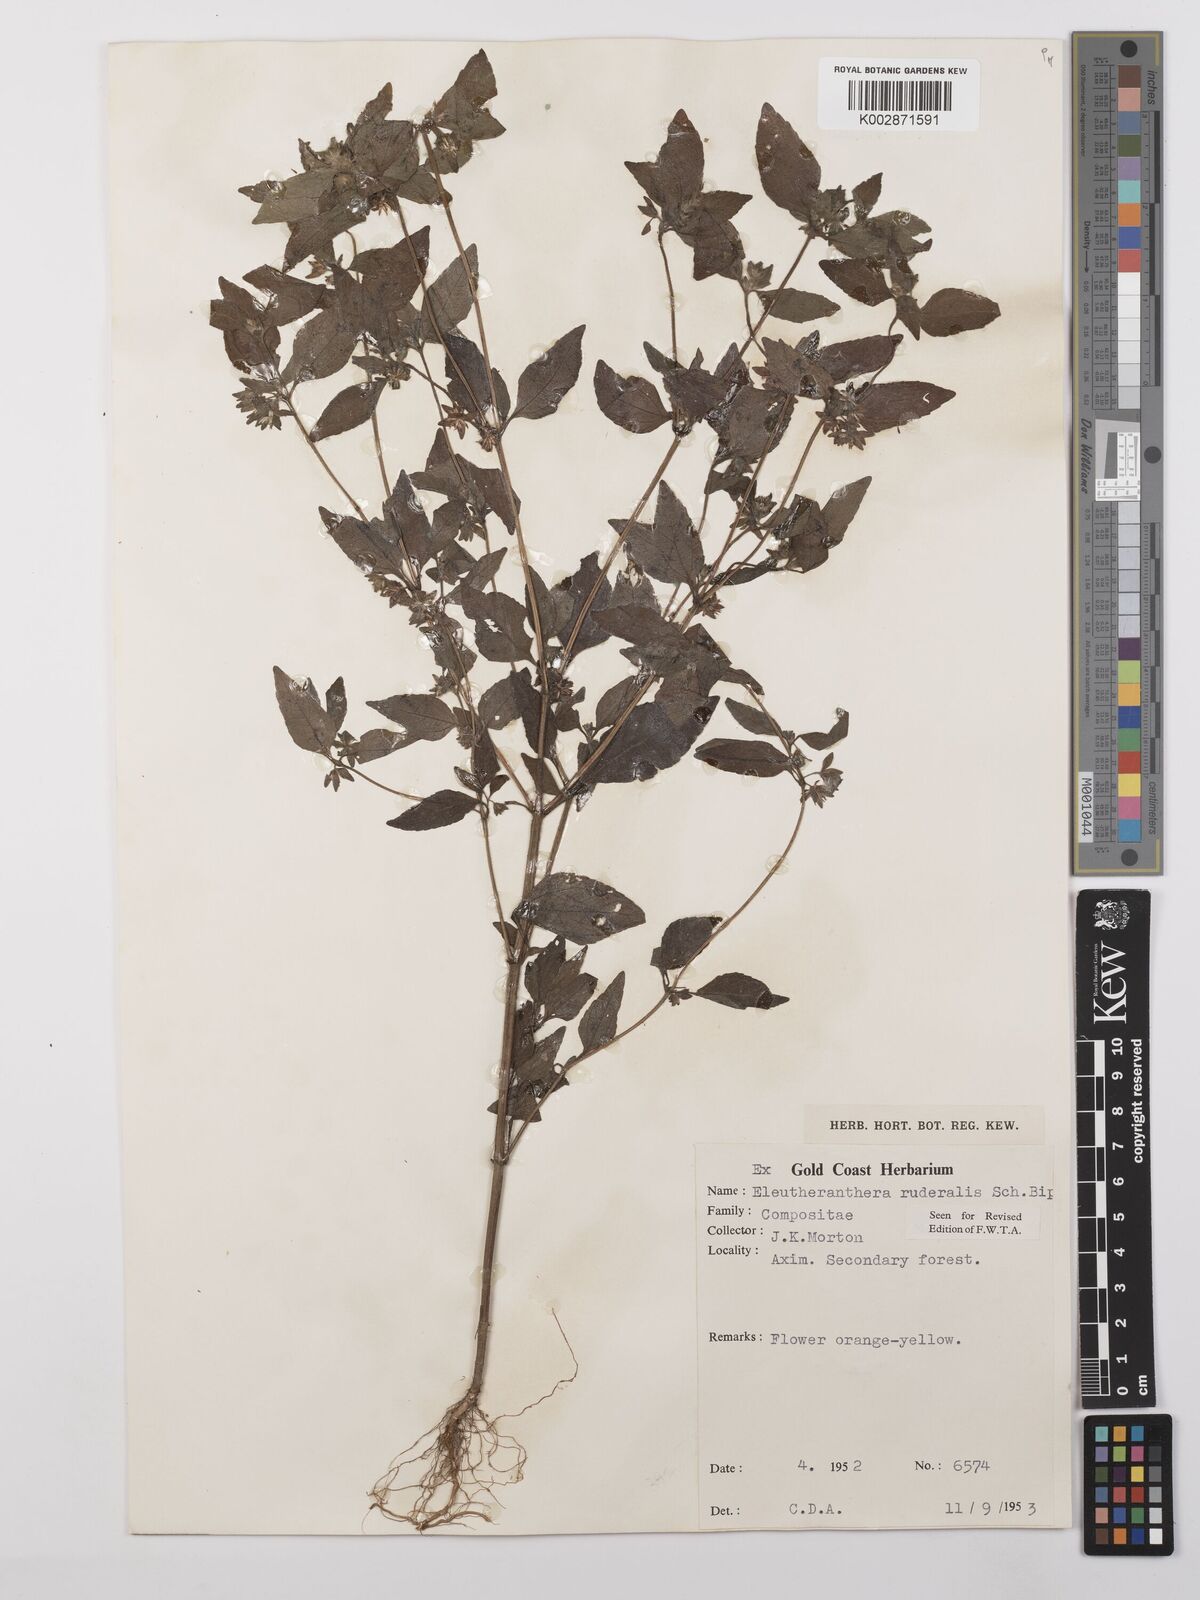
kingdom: Plantae
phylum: Tracheophyta
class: Magnoliopsida
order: Asterales
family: Asteraceae
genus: Eleutheranthera
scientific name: Eleutheranthera ruderalis
